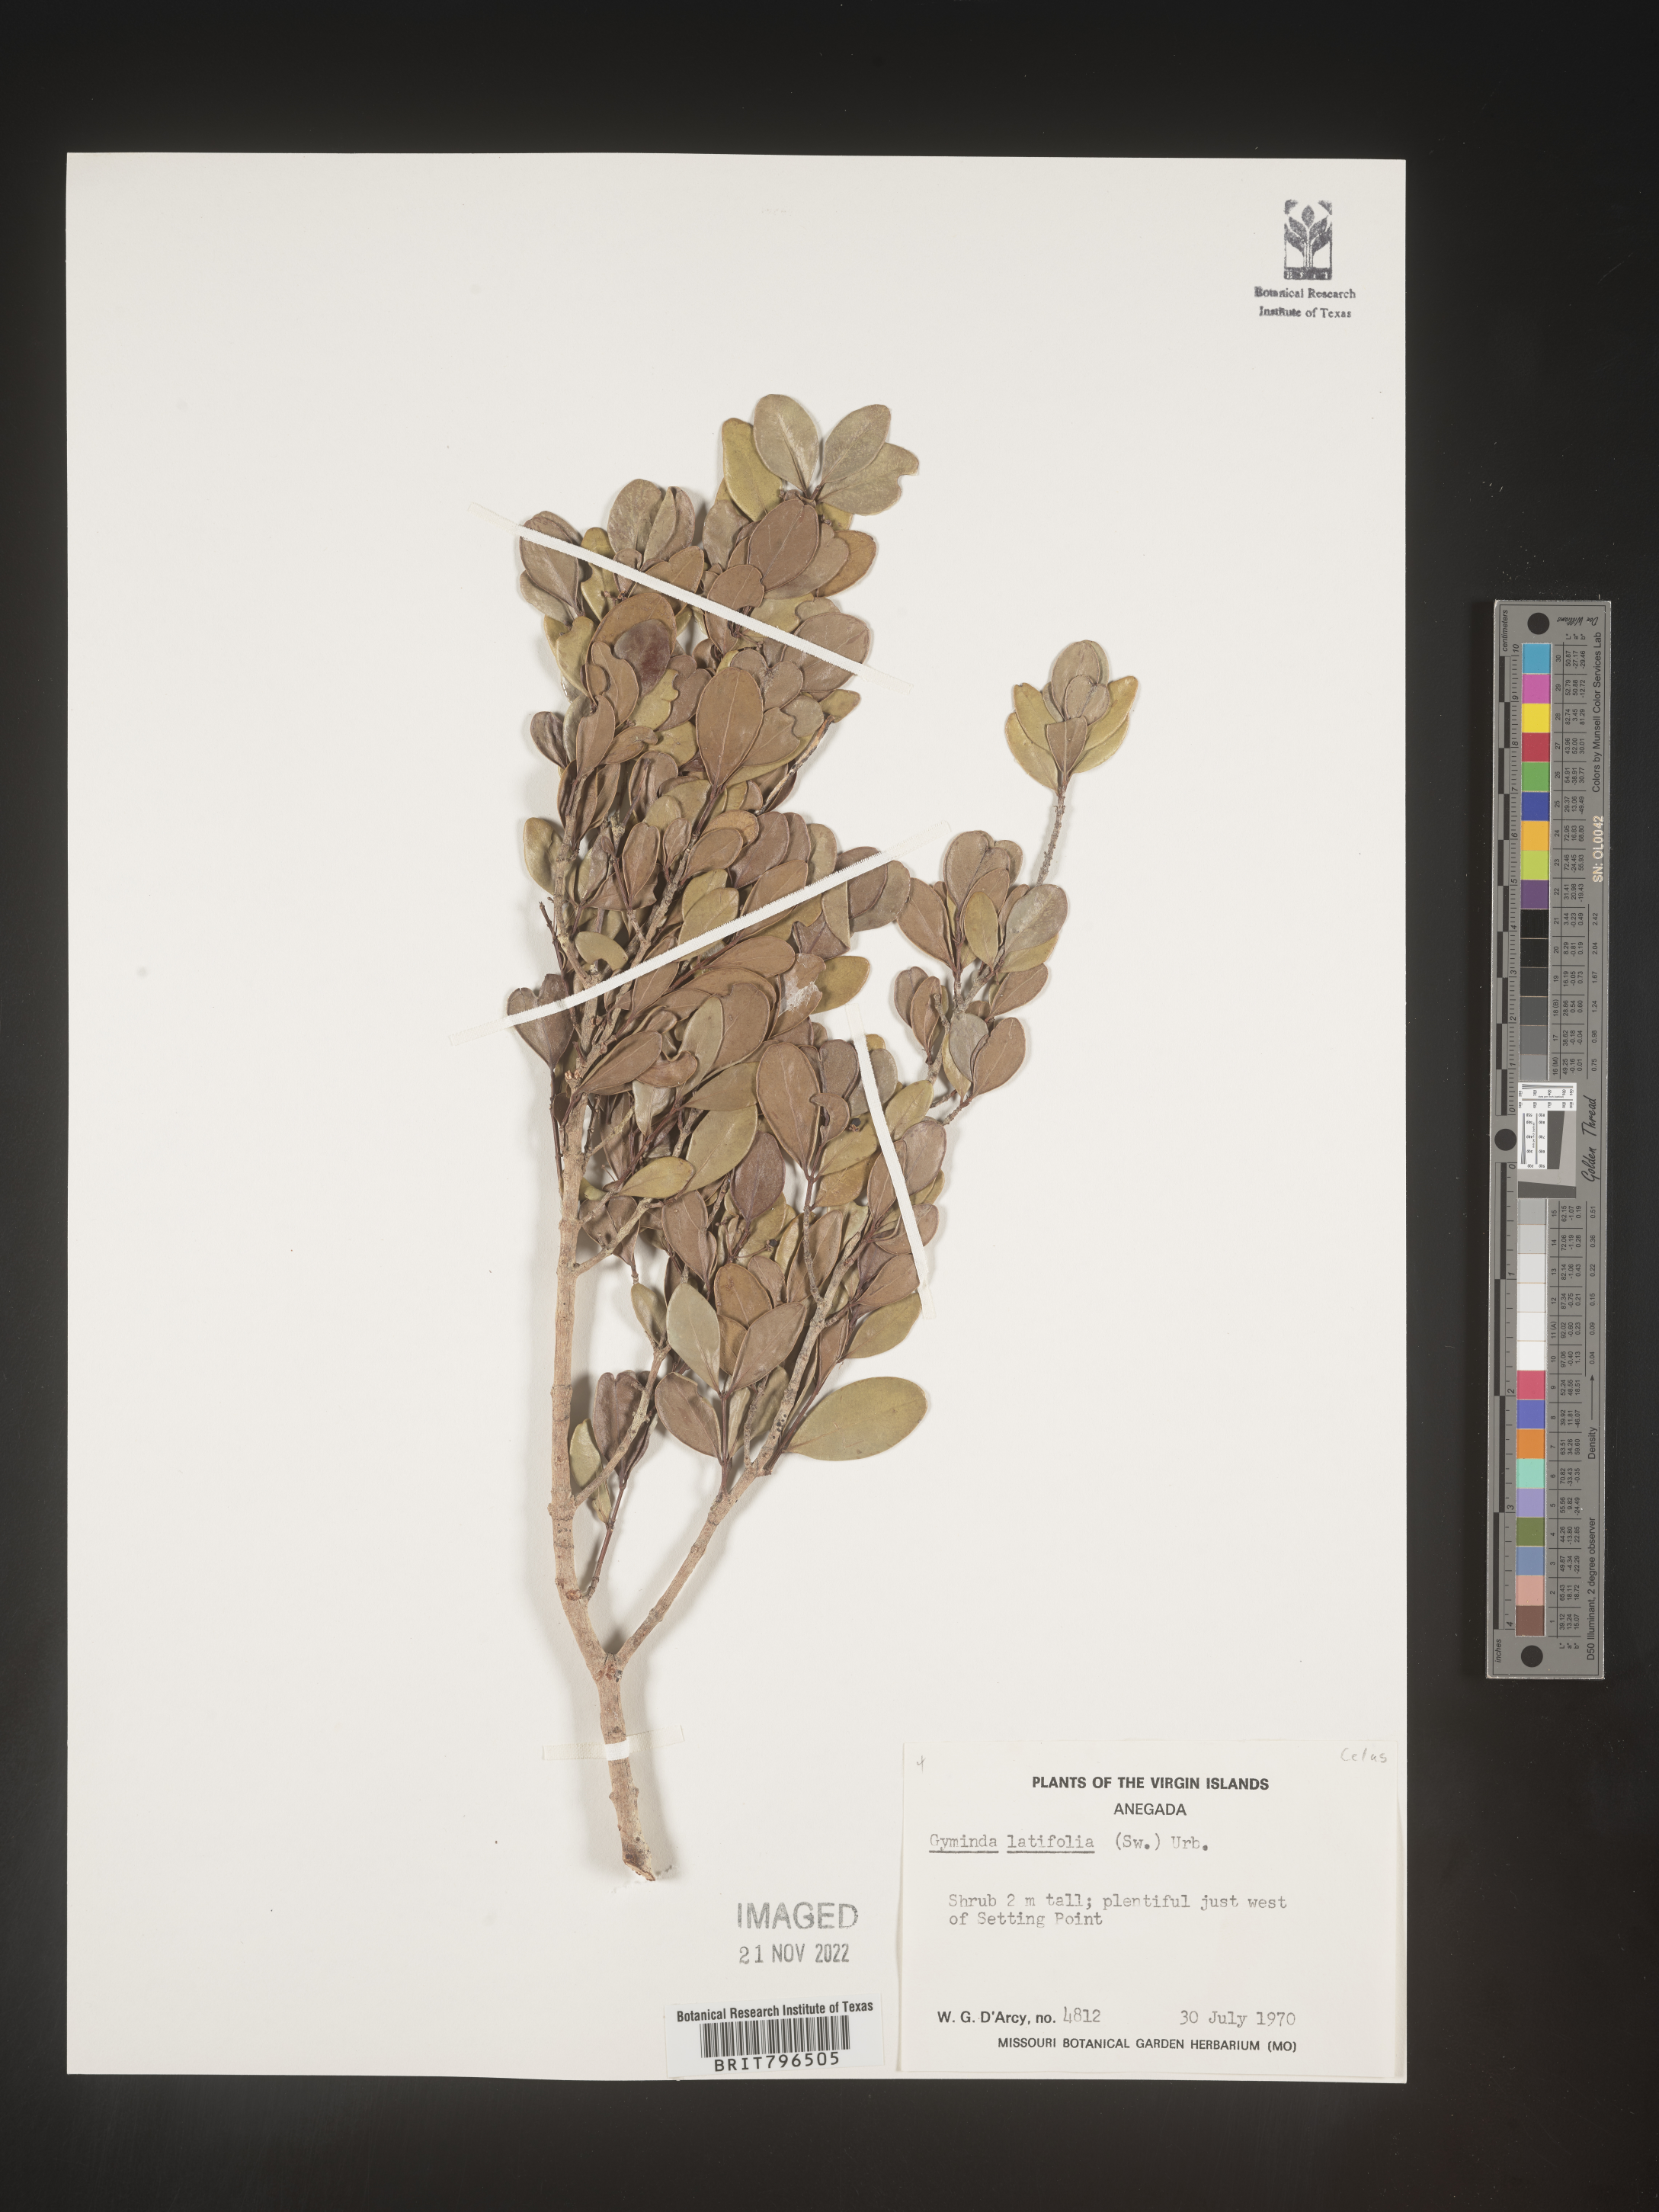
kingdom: Plantae
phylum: Tracheophyta
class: Magnoliopsida
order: Celastrales
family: Celastraceae
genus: Gyminda
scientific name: Gyminda
